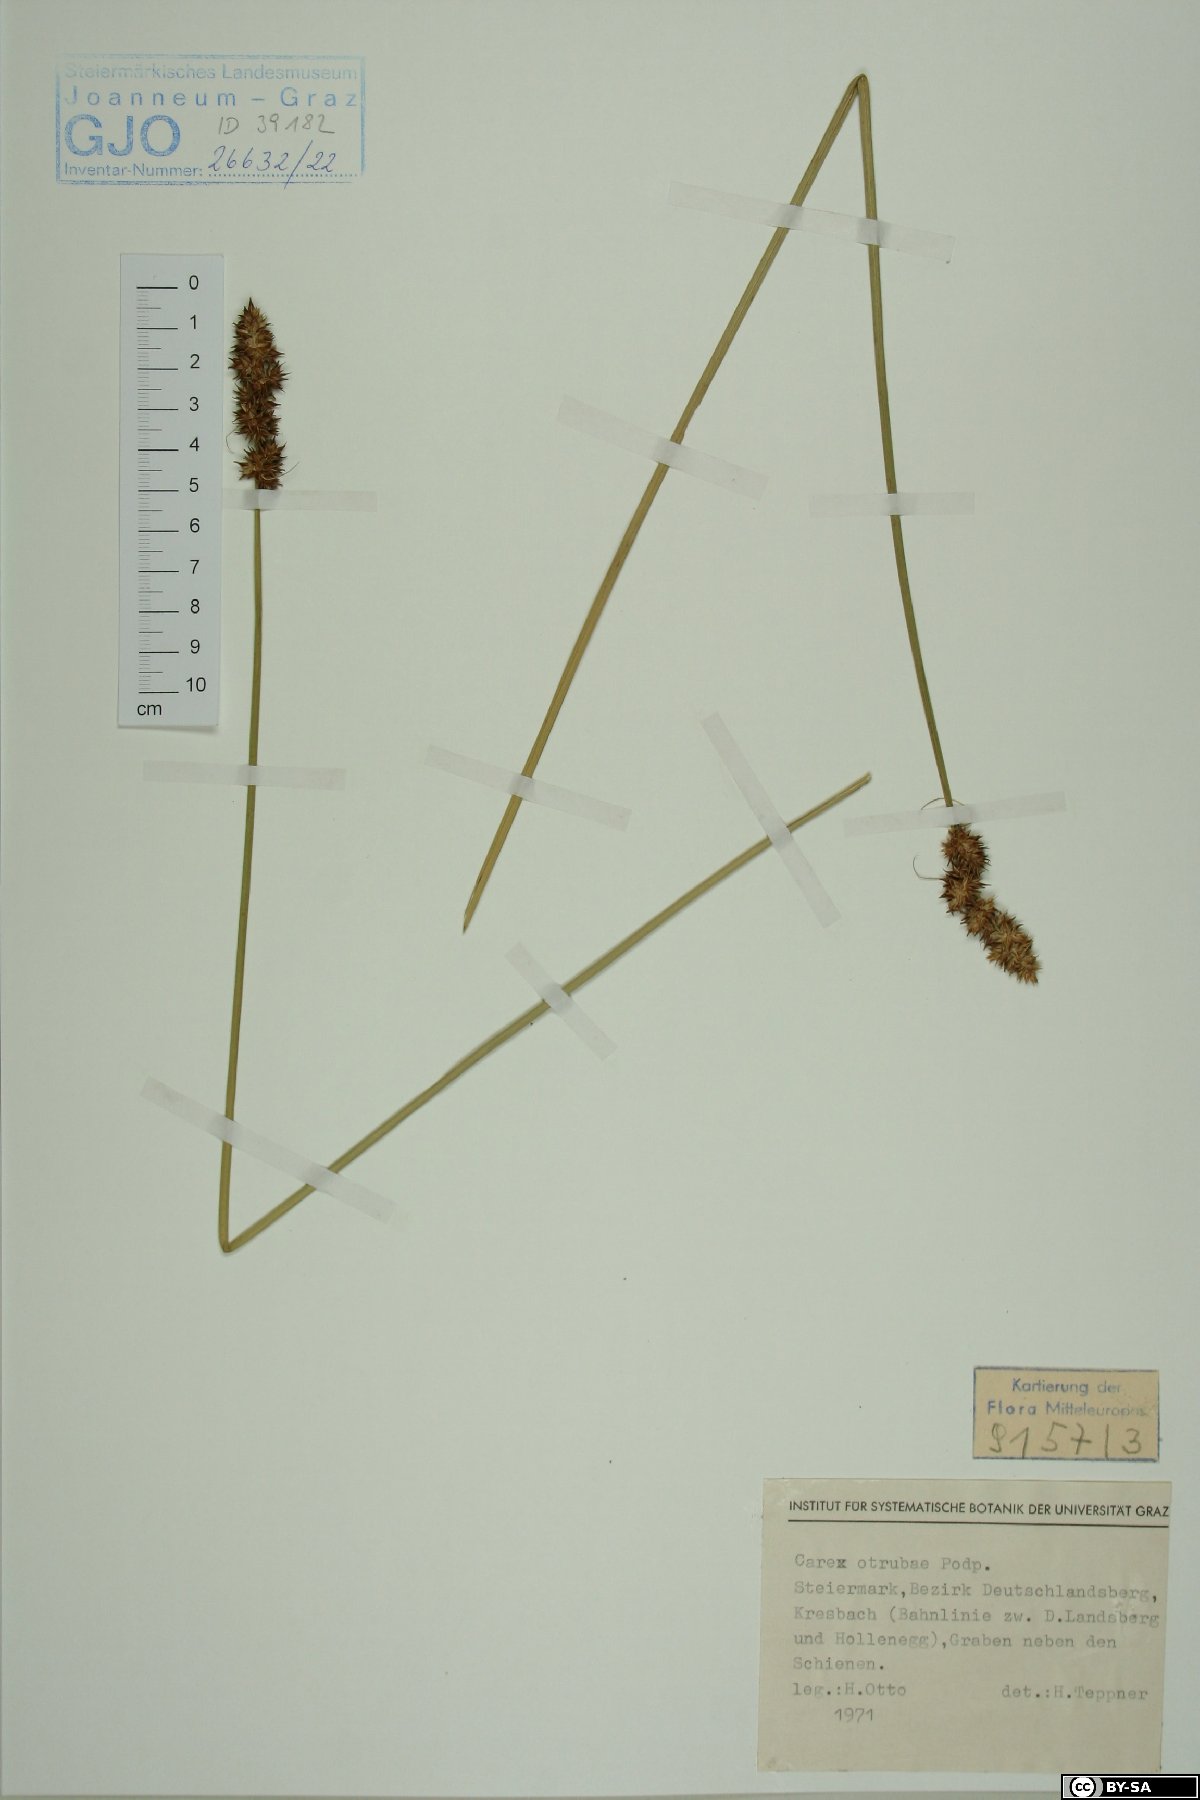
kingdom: Plantae
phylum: Tracheophyta
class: Liliopsida
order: Poales
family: Cyperaceae
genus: Carex
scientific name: Carex otrubae
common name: False fox-sedge
